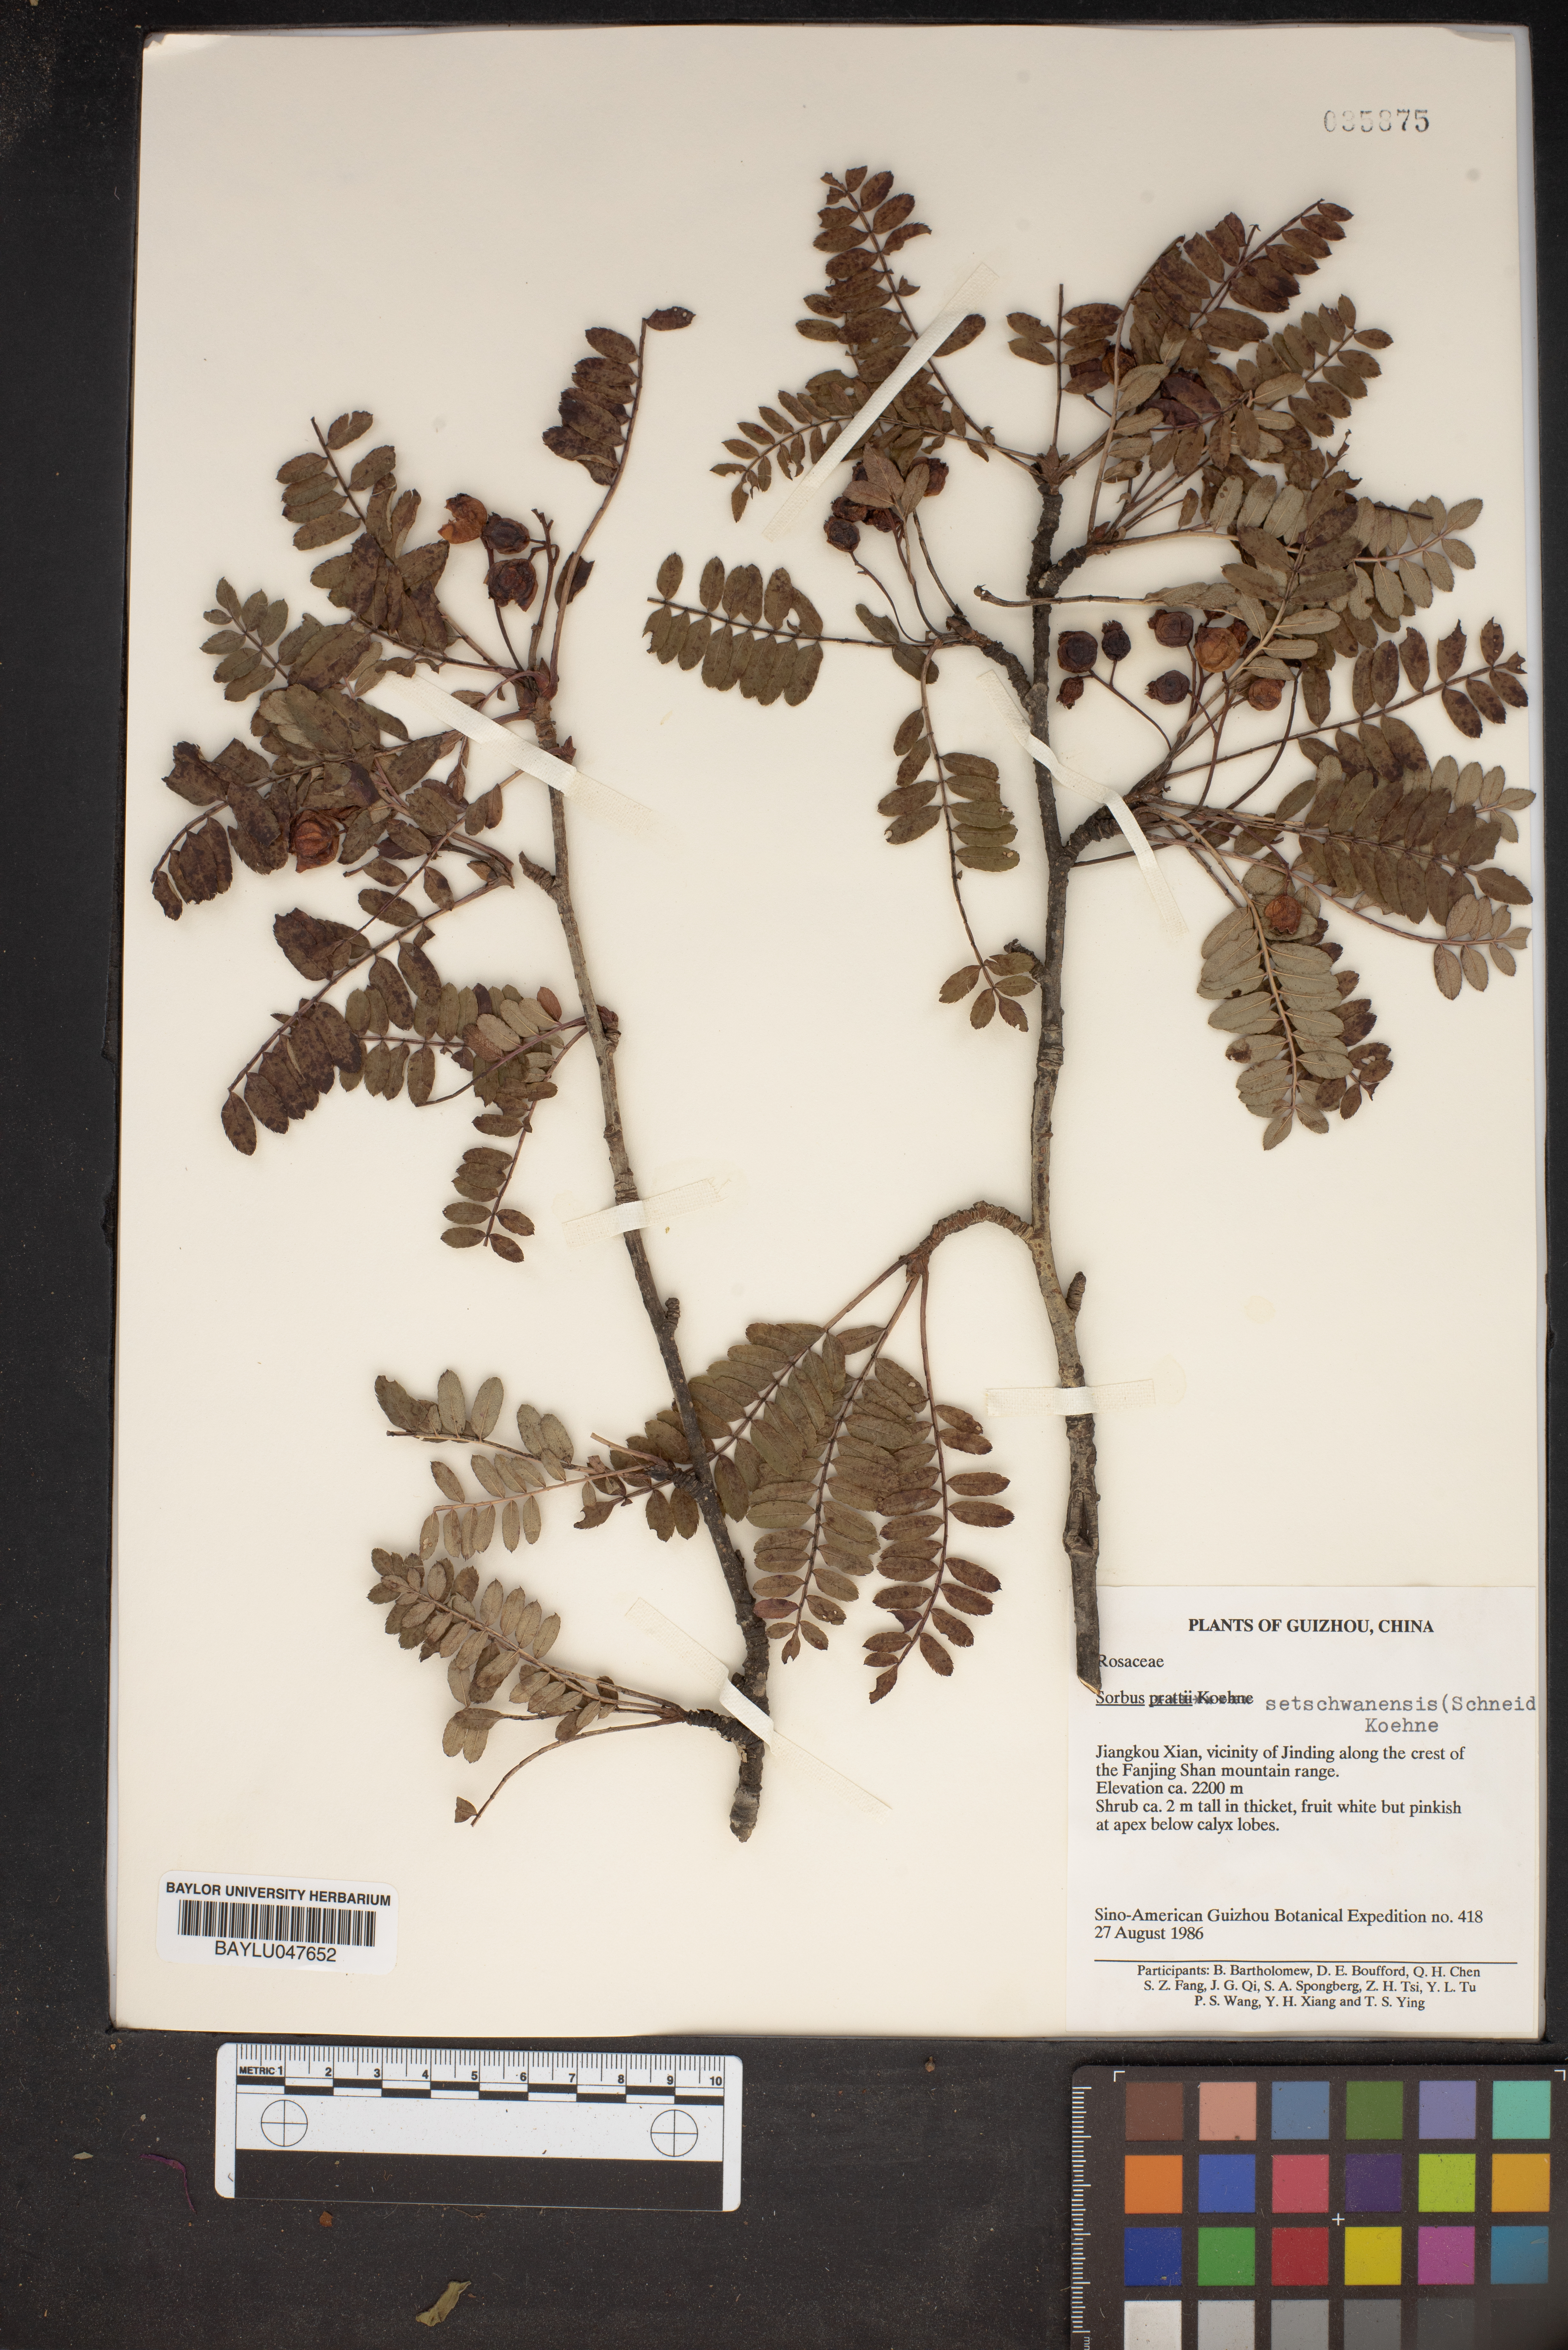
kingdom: Plantae
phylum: Tracheophyta
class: Magnoliopsida
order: Rosales
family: Rosaceae
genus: Sorbus
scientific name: Sorbus setschwanensis
